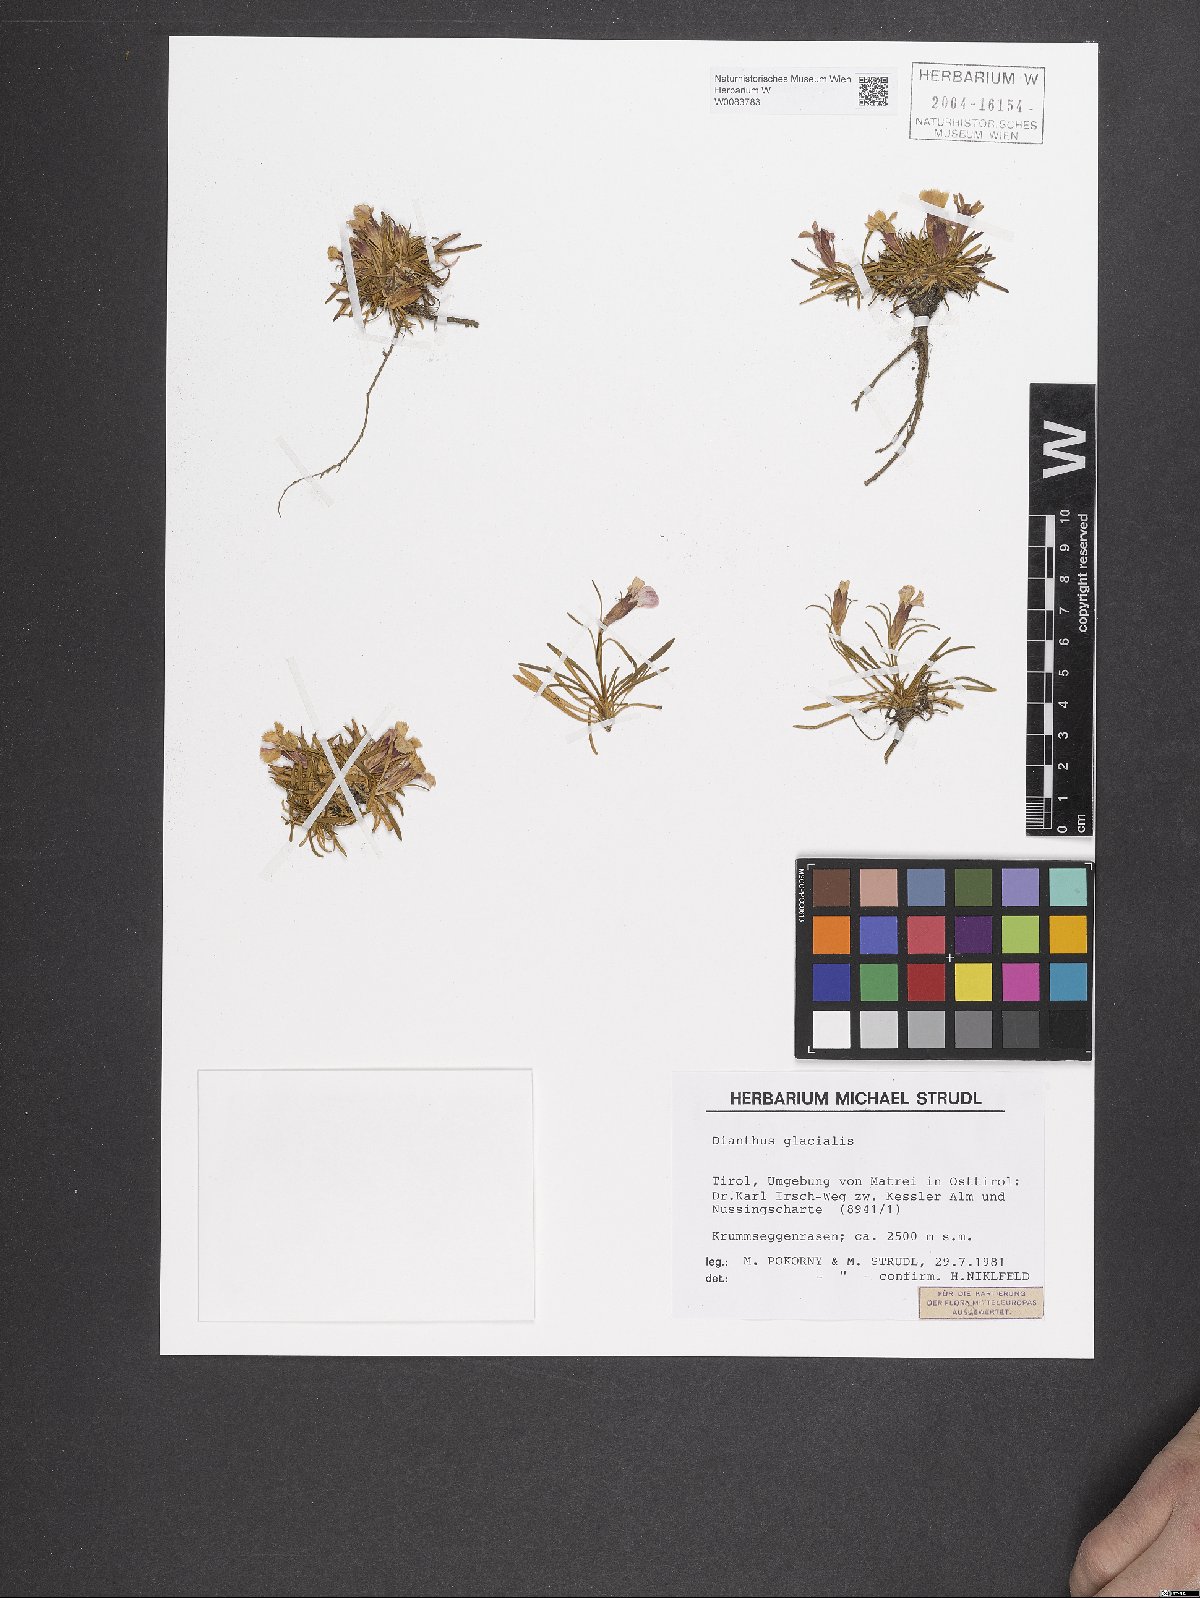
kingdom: Plantae
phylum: Tracheophyta
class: Magnoliopsida
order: Caryophyllales
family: Caryophyllaceae
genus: Dianthus
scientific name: Dianthus glacialis
